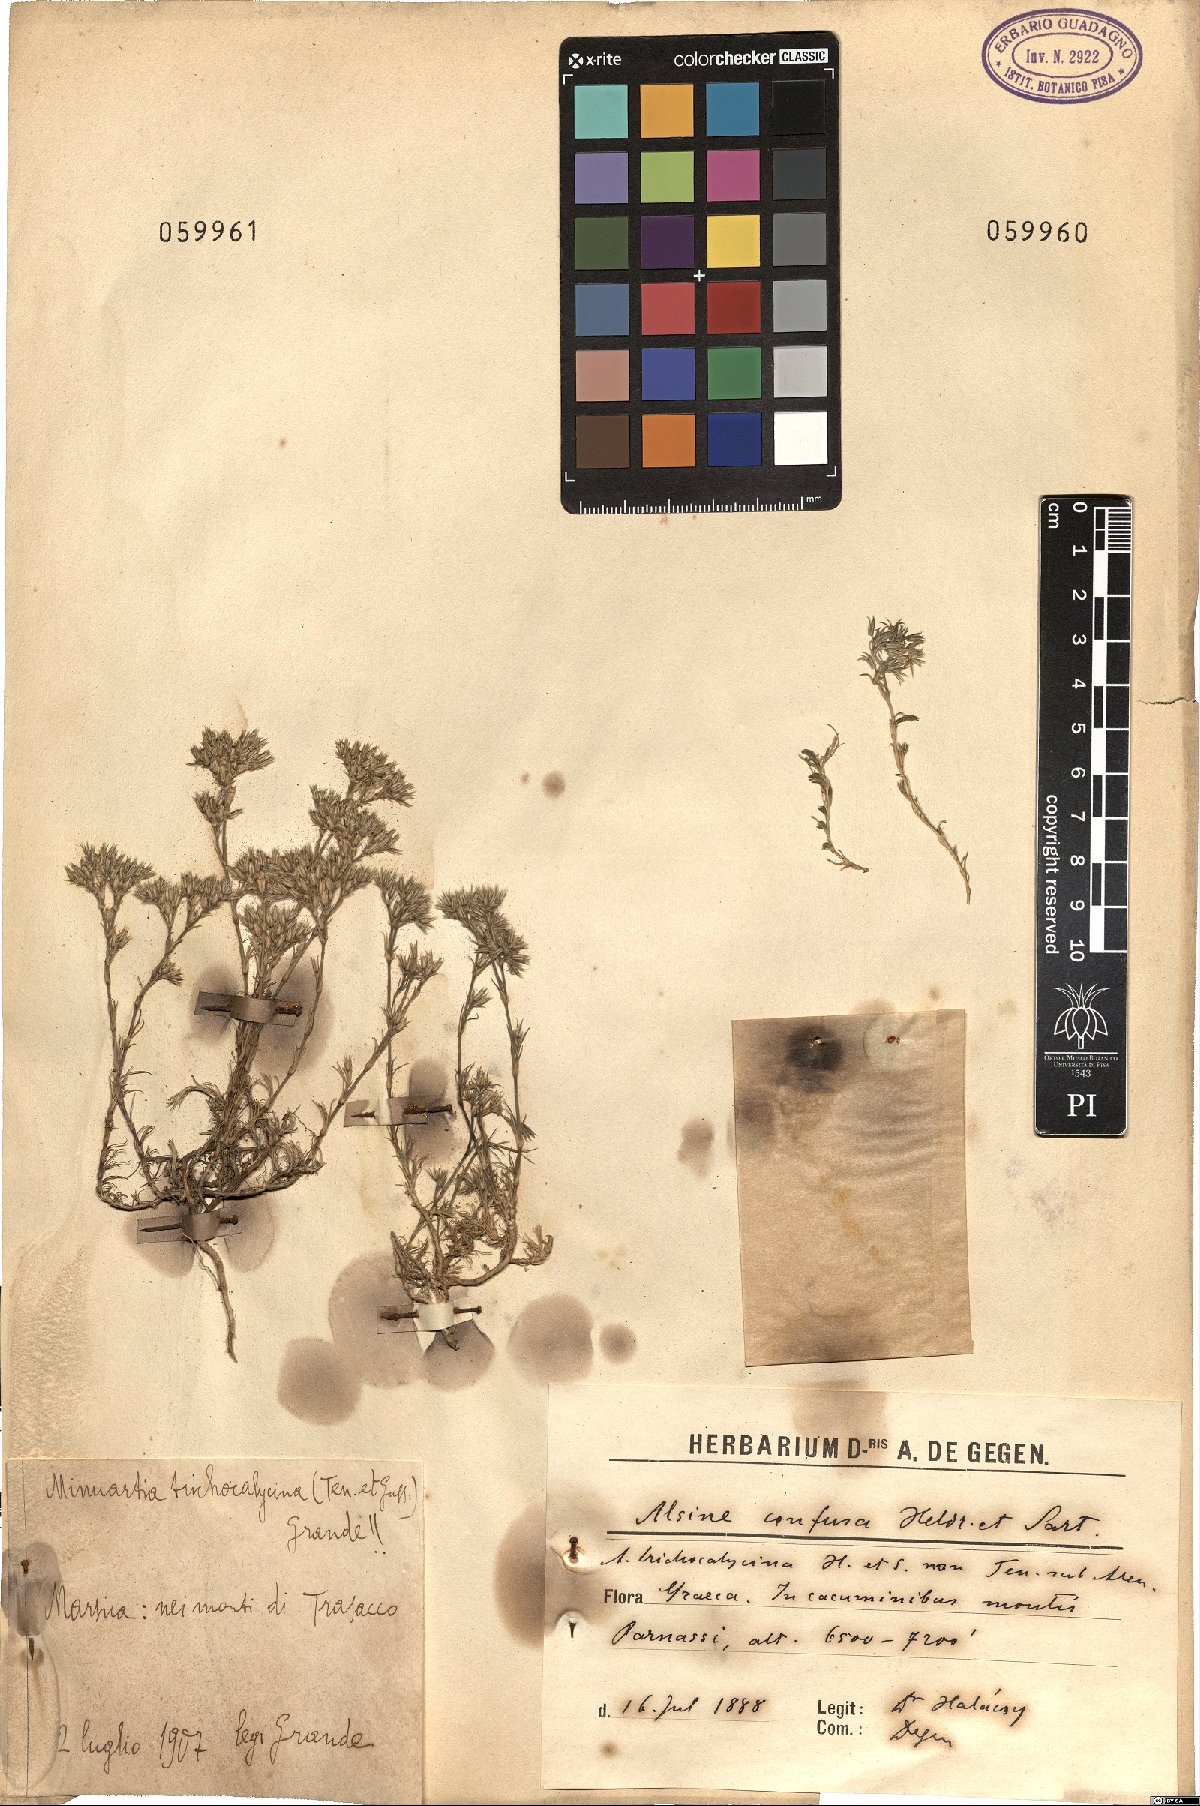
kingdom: Plantae
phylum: Tracheophyta
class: Magnoliopsida
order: Caryophyllales
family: Caryophyllaceae
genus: Minuartia
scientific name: Minuartia glomerata
